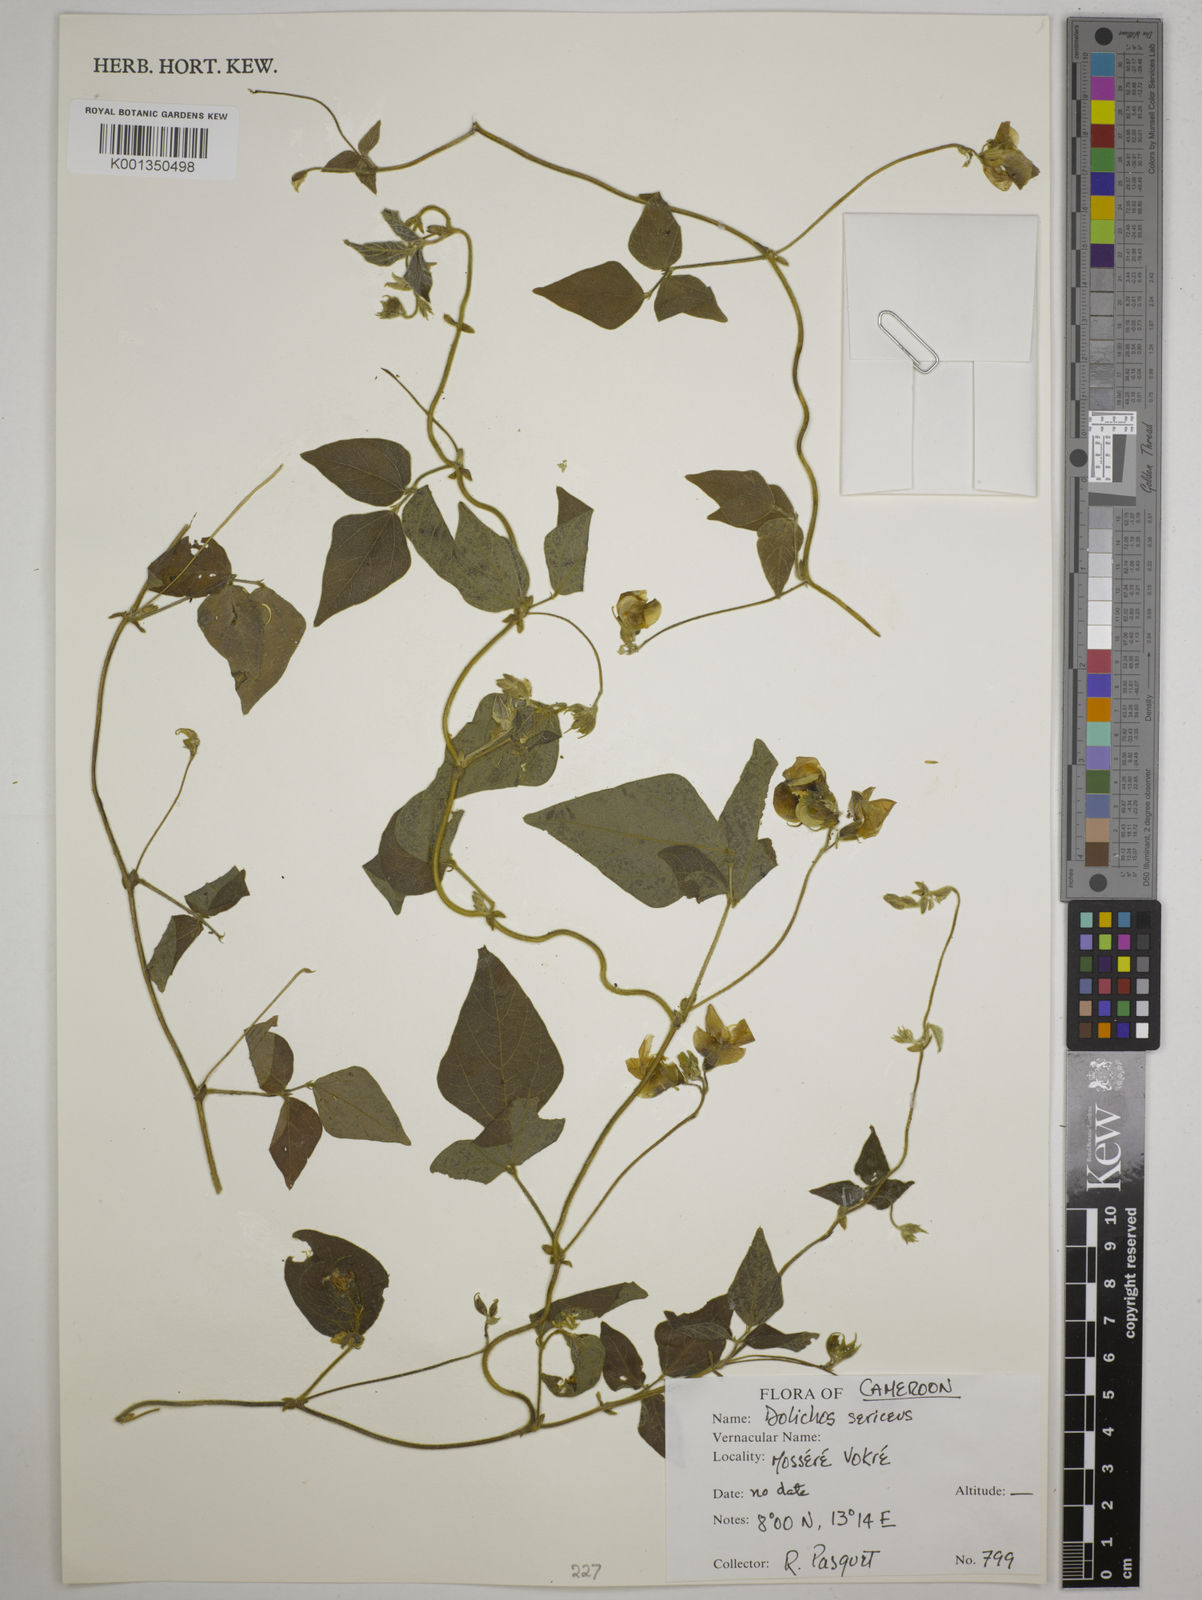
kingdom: Plantae
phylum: Tracheophyta
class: Magnoliopsida
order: Fabales
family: Fabaceae
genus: Dolichos
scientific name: Dolichos sericeus
